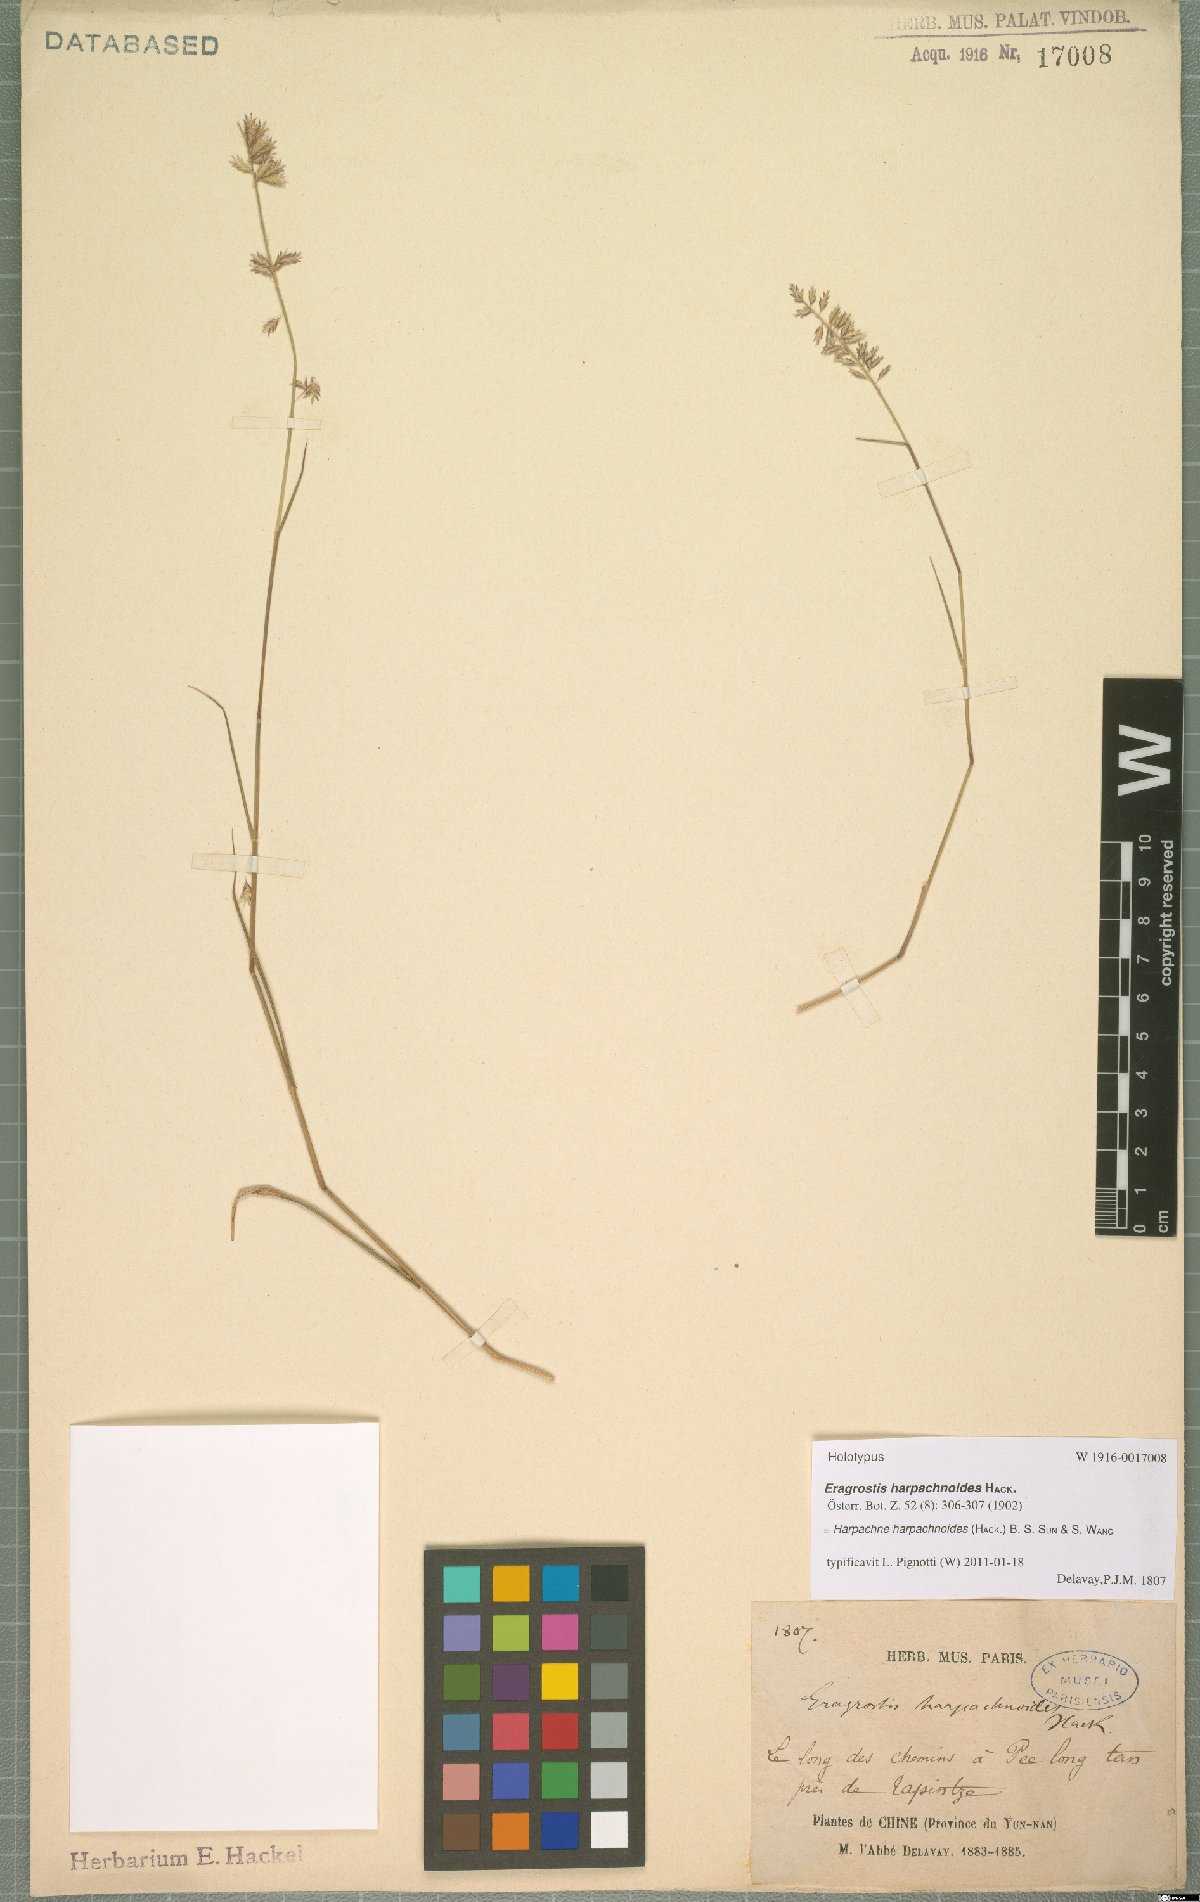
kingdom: Plantae
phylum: Tracheophyta
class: Liliopsida
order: Poales
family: Poaceae
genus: Harpachne
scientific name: Harpachne harpachnoides
